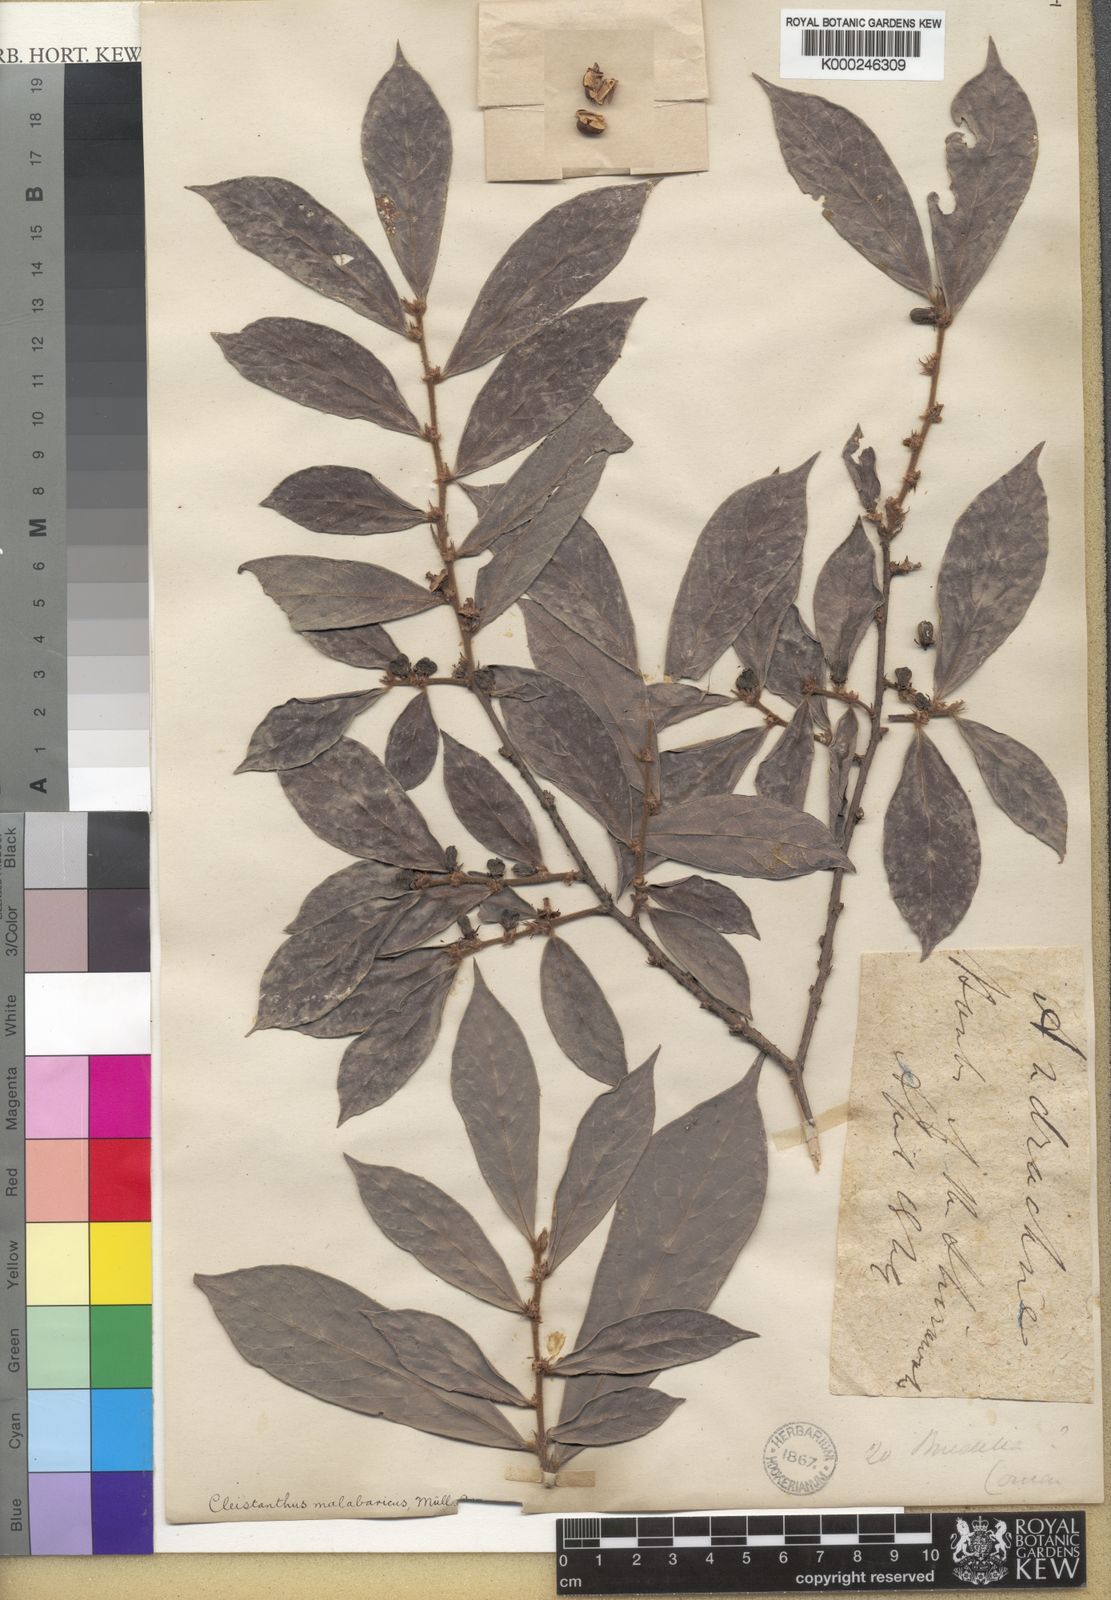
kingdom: Plantae
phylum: Tracheophyta
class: Magnoliopsida
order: Malpighiales
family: Phyllanthaceae
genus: Cleistanthus
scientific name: Cleistanthus
